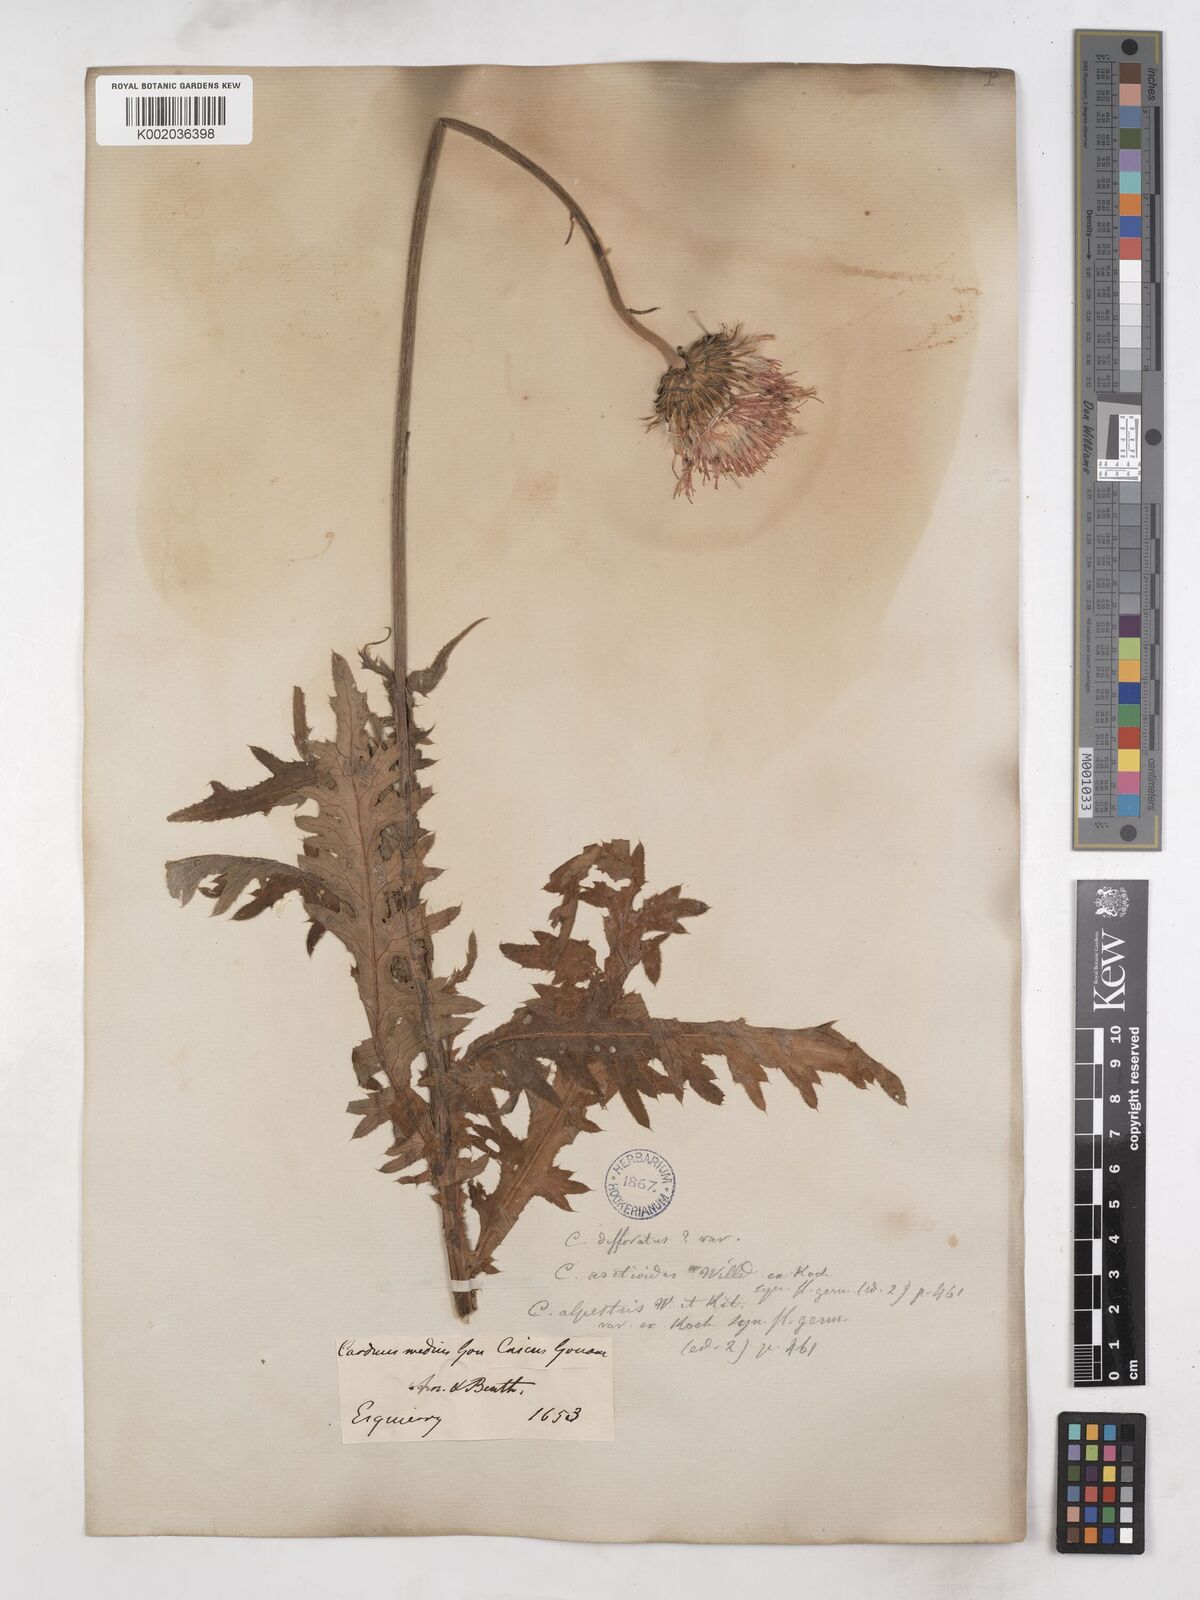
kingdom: Plantae
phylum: Tracheophyta
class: Magnoliopsida
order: Asterales
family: Asteraceae
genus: Carduus
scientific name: Carduus defloratus
